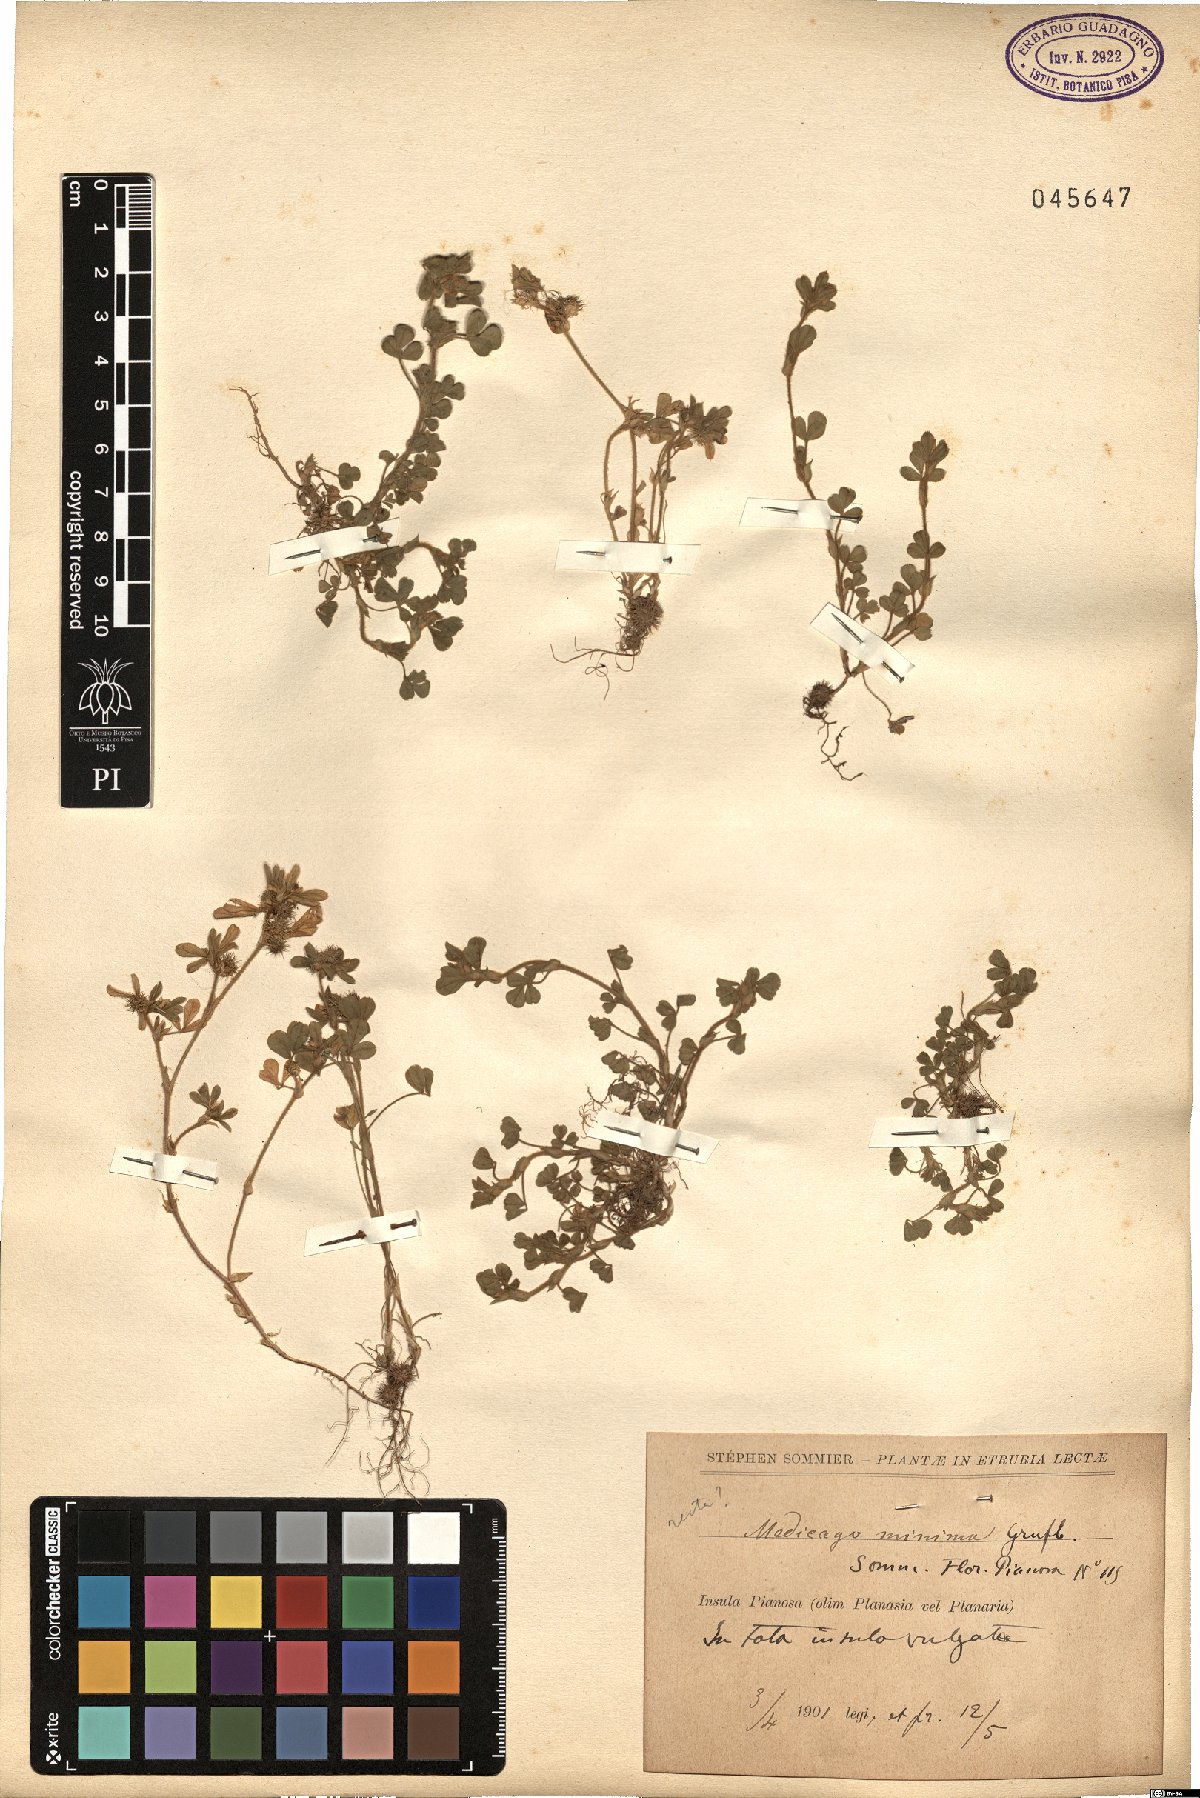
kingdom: Plantae
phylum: Tracheophyta
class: Magnoliopsida
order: Fabales
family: Fabaceae
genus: Medicago
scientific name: Medicago minima
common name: Little bur-clover
